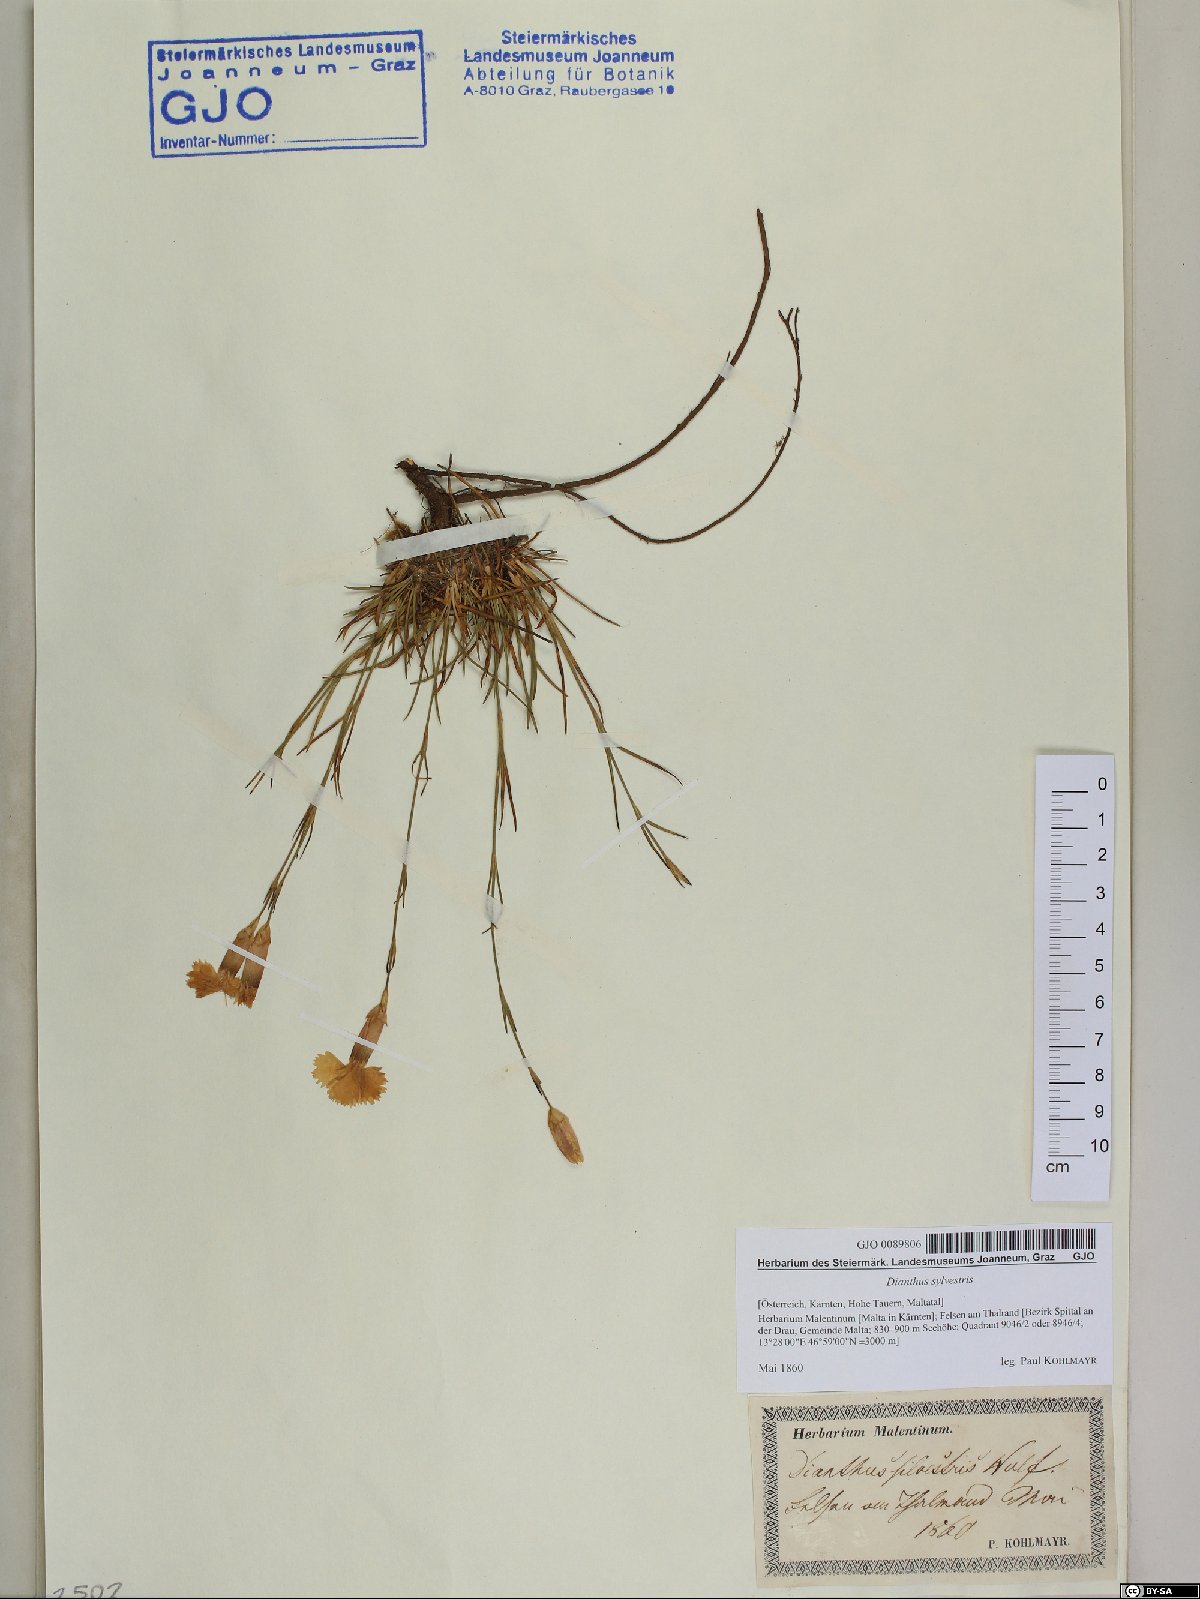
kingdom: Plantae
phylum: Tracheophyta
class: Magnoliopsida
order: Caryophyllales
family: Caryophyllaceae
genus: Dianthus
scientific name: Dianthus sylvestris
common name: Wood pink
